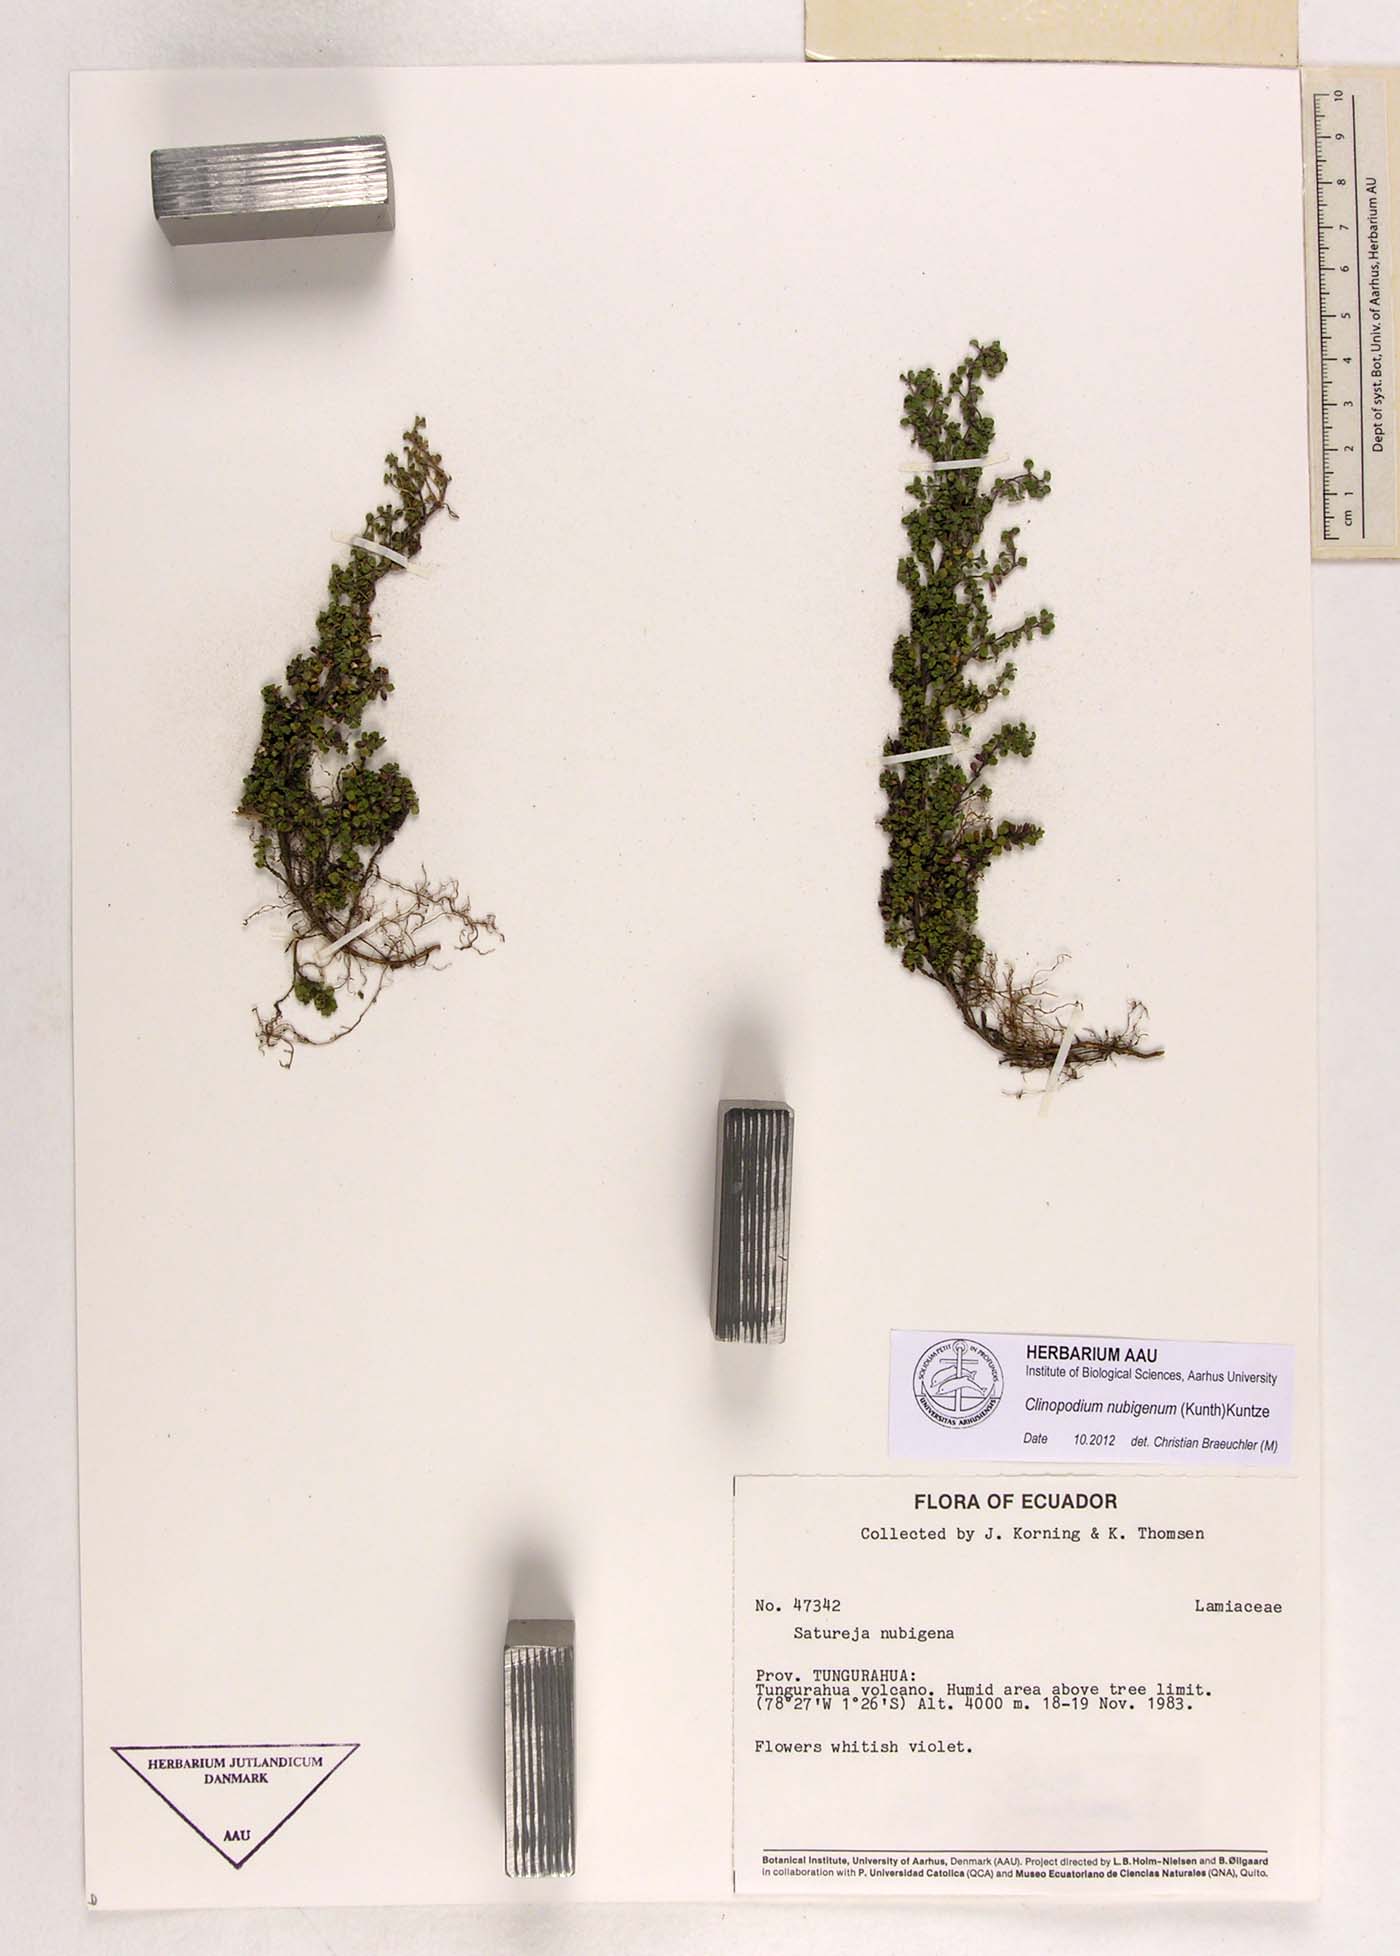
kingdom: Plantae
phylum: Tracheophyta
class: Magnoliopsida
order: Lamiales
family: Lamiaceae
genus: Clinopodium
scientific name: Clinopodium nubigenum
